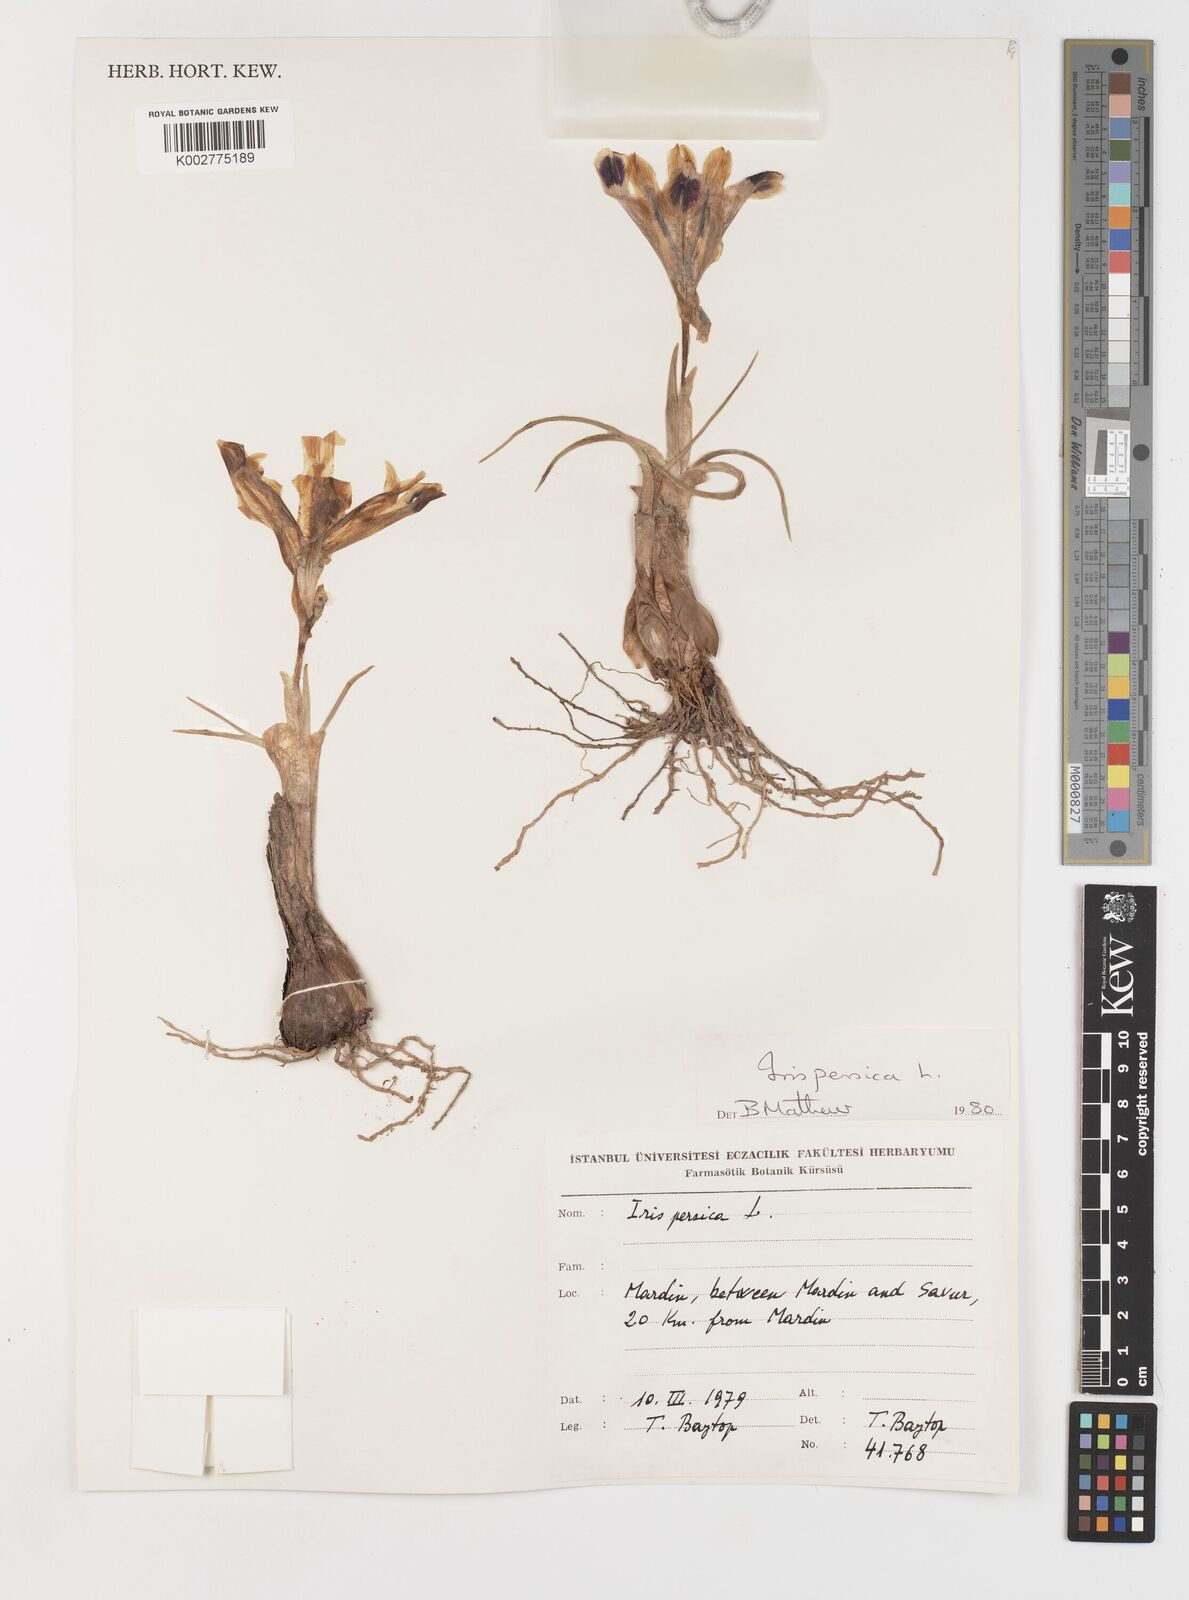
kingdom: Plantae
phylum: Tracheophyta
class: Liliopsida
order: Asparagales
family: Iridaceae
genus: Iris
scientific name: Iris persica
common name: Persian iris
